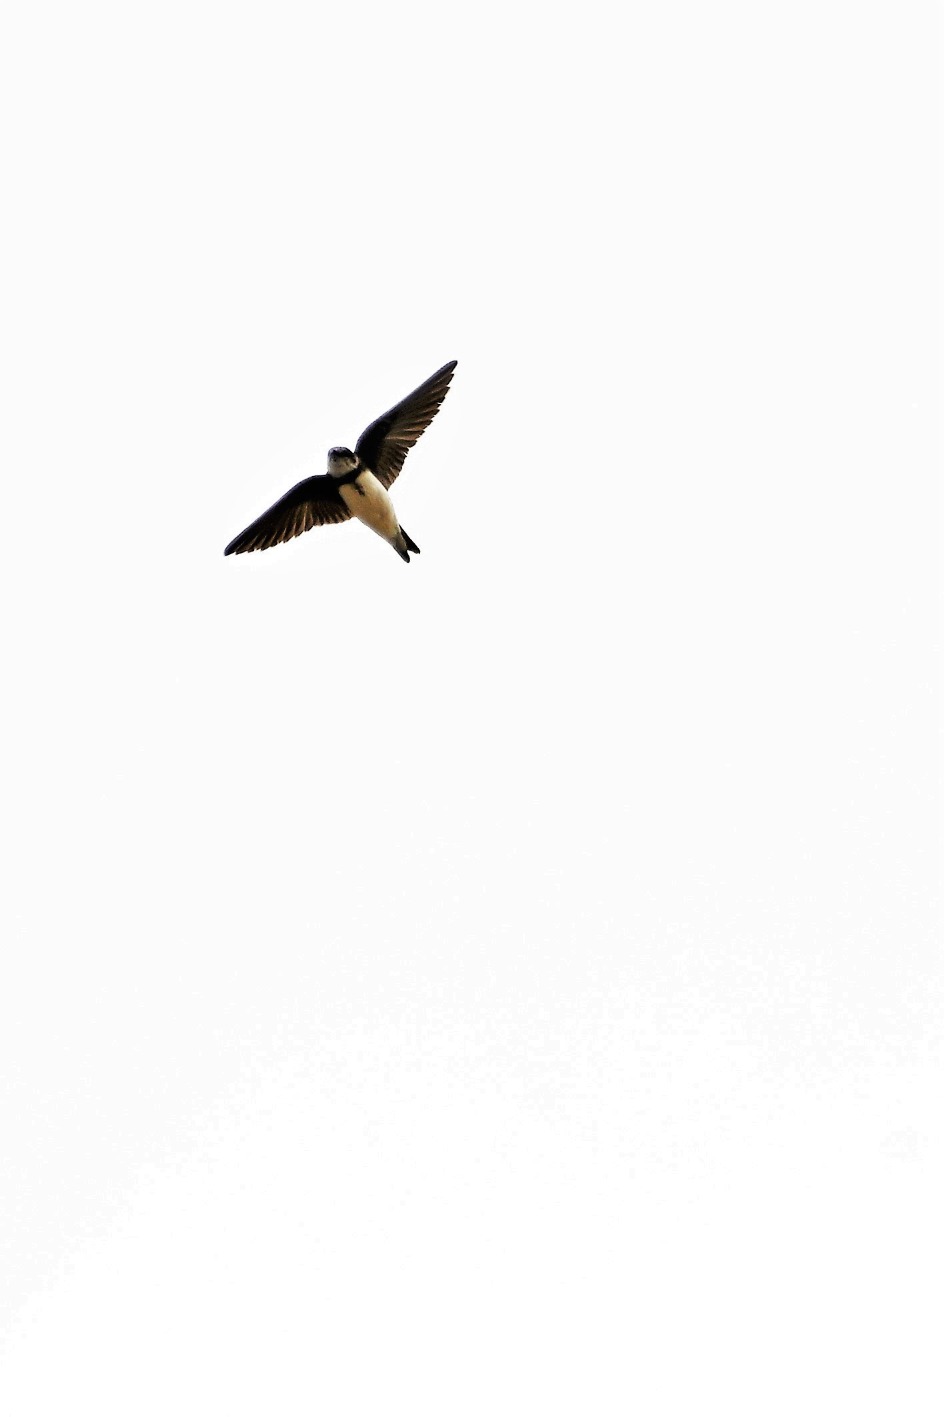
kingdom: Animalia
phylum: Chordata
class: Aves
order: Passeriformes
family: Hirundinidae
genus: Riparia
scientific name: Riparia riparia
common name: Digesvale
